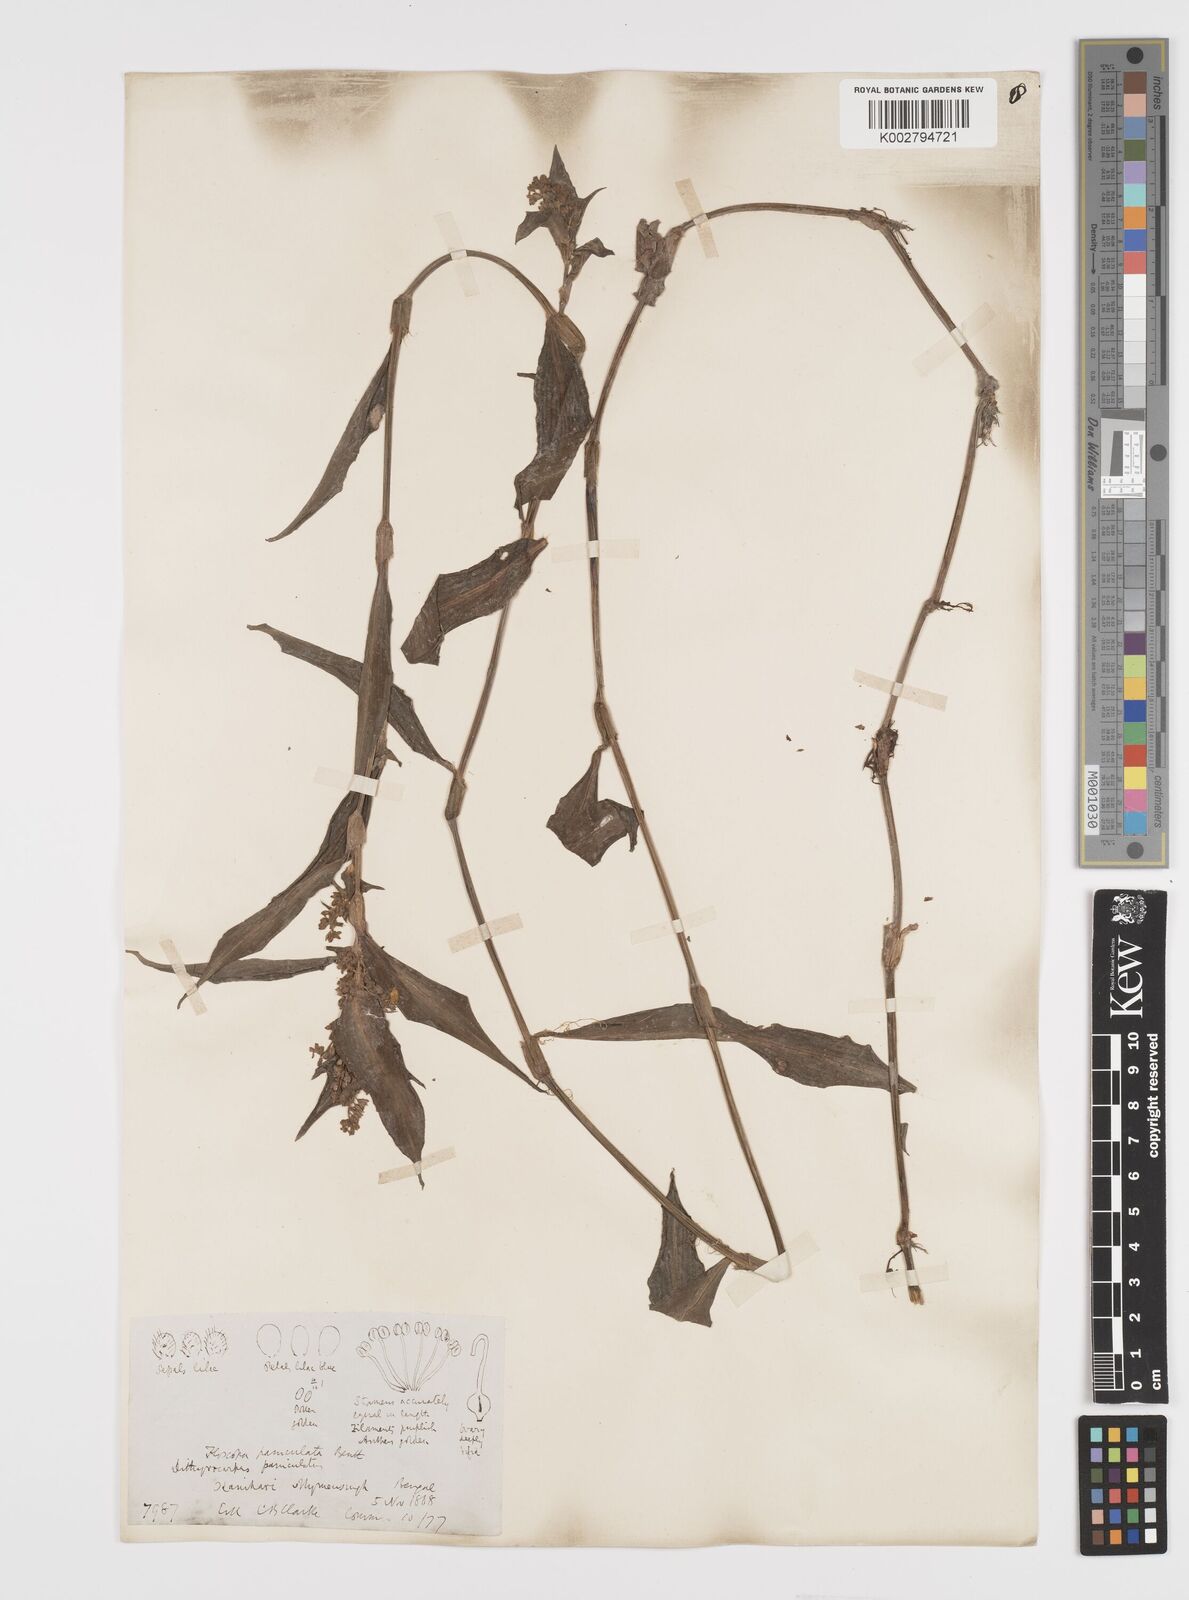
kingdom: Plantae
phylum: Tracheophyta
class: Liliopsida
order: Commelinales
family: Commelinaceae
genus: Floscopa
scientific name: Floscopa scandens
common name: Climbing flower cup
